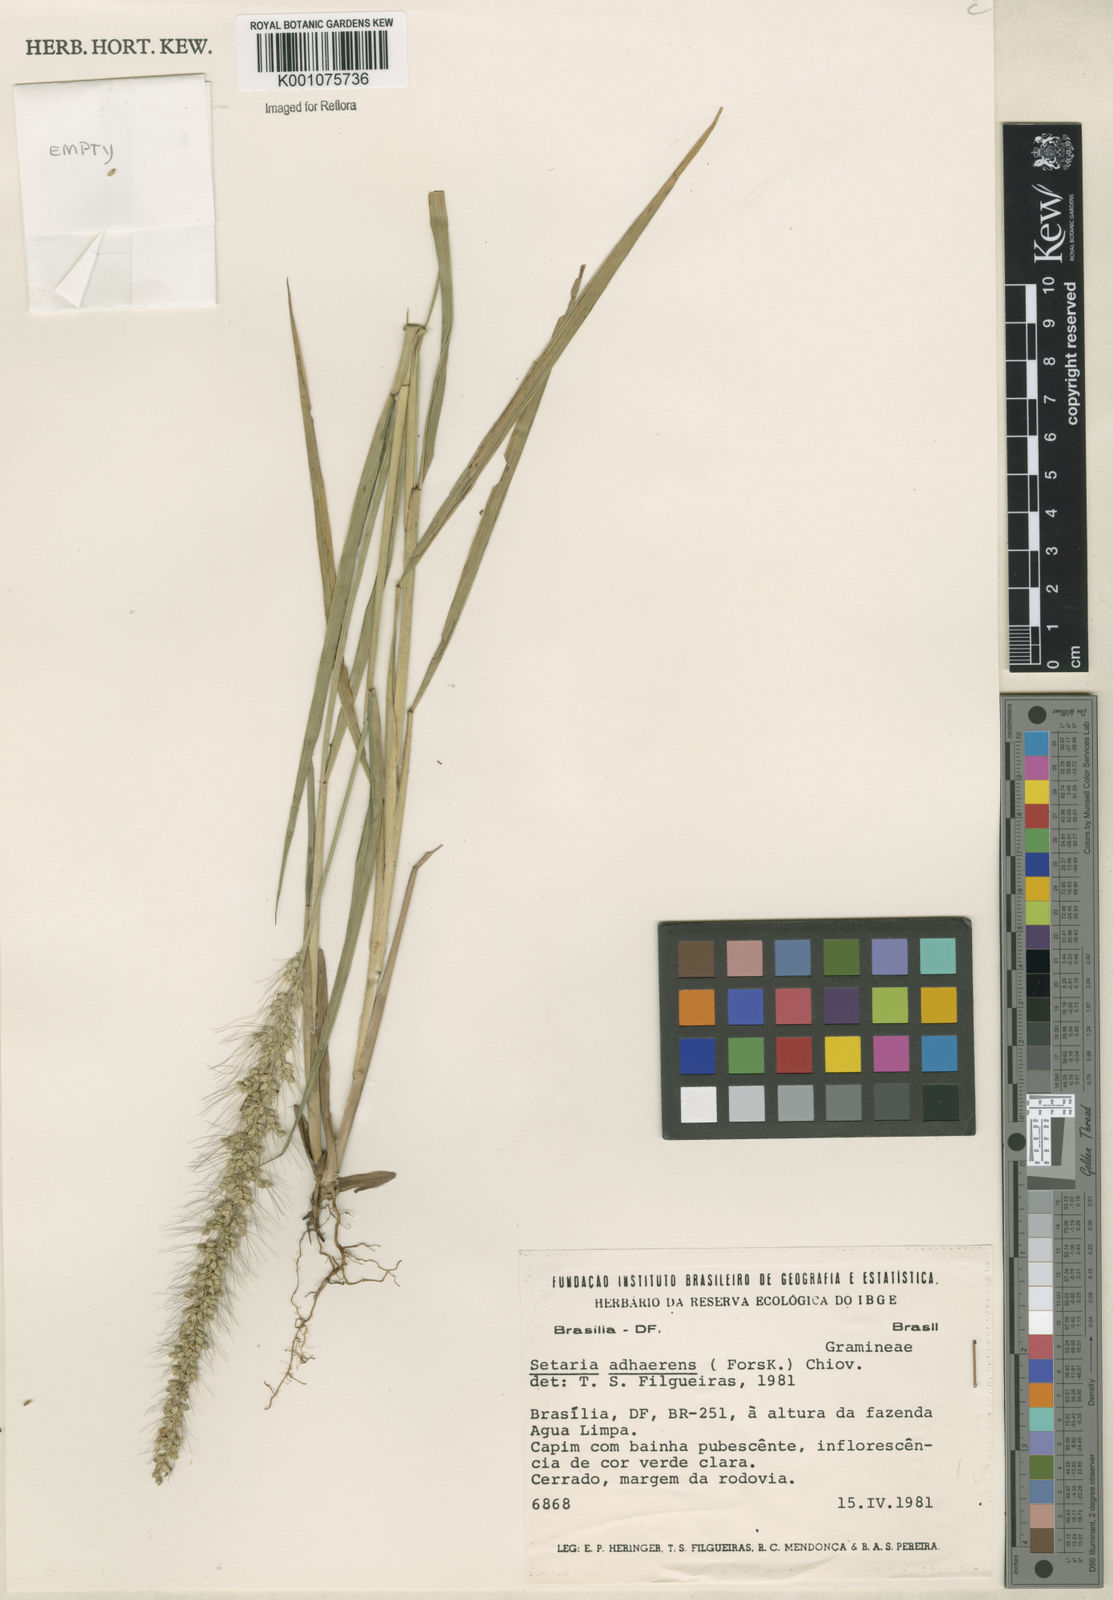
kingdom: Plantae
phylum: Tracheophyta
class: Liliopsida
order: Poales
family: Poaceae
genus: Setaria
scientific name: Setaria tenax
